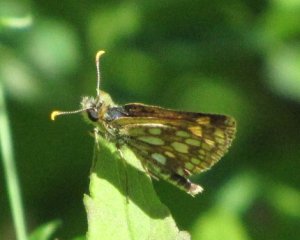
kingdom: Animalia
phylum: Arthropoda
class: Insecta
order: Lepidoptera
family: Hesperiidae
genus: Carterocephalus
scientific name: Carterocephalus palaemon
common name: Chequered Skipper
